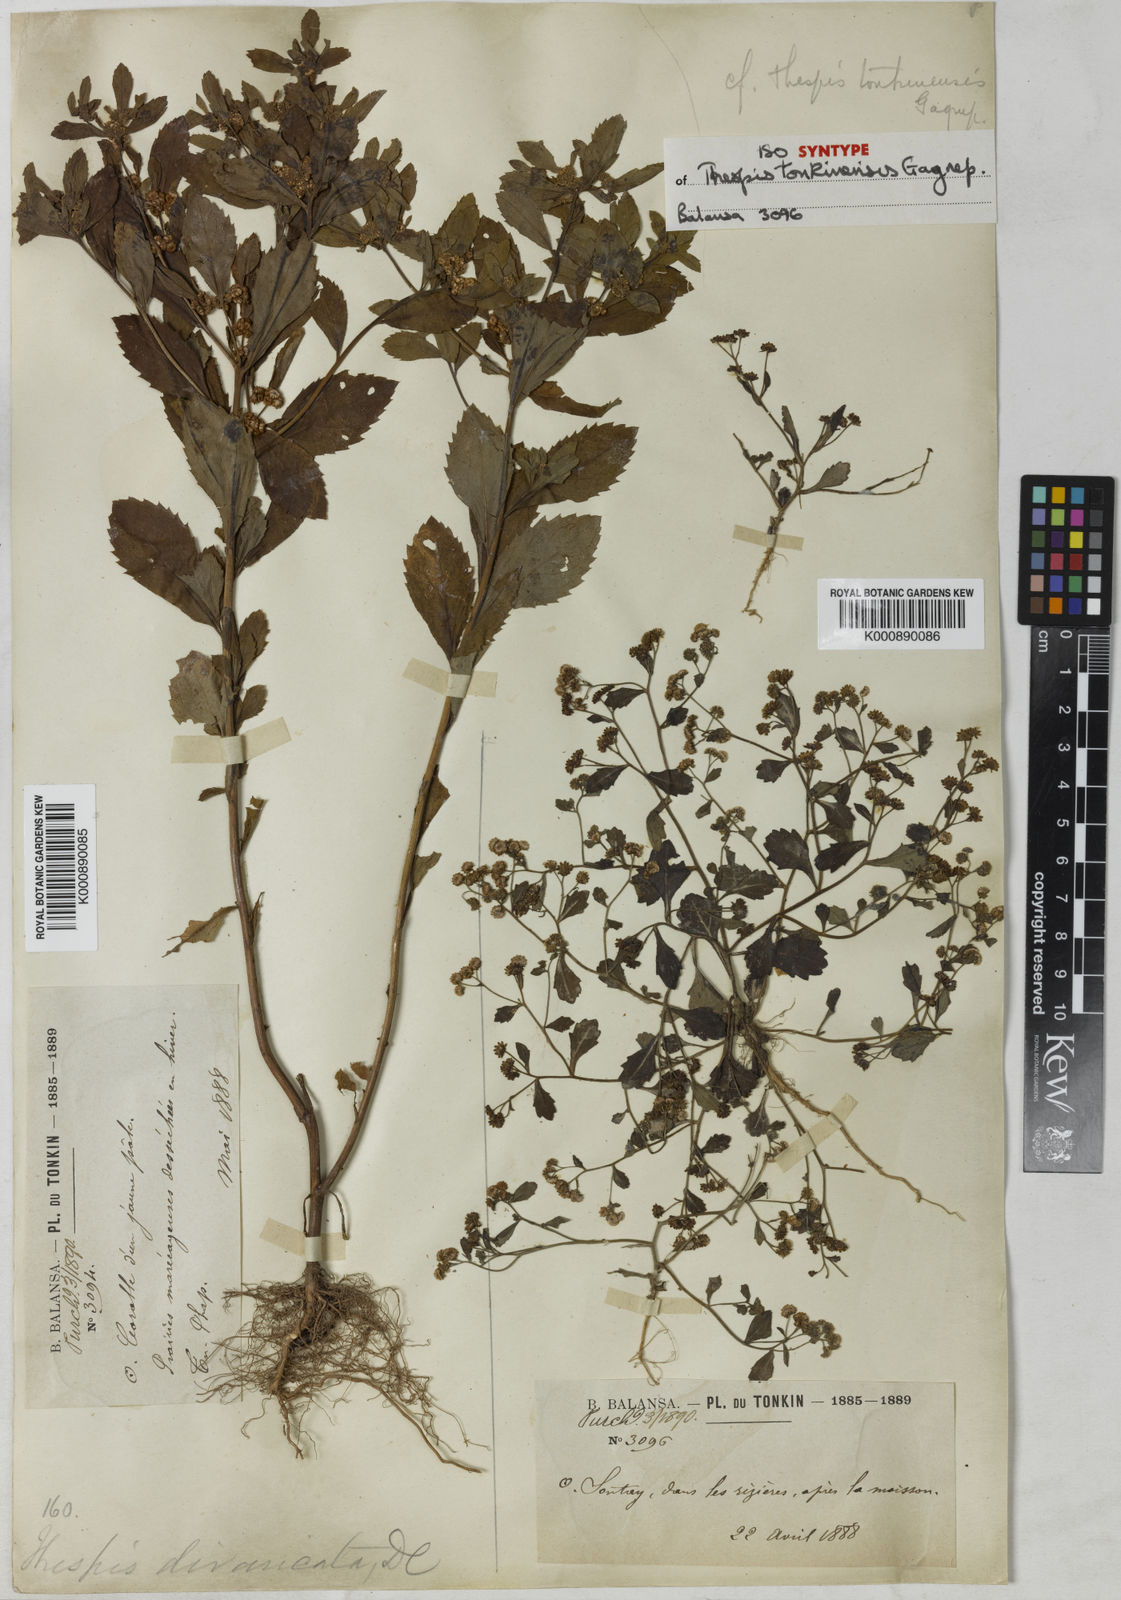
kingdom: Plantae
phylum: Tracheophyta
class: Magnoliopsida
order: Asterales
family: Asteraceae
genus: Thespis
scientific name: Thespis tonkinensis
